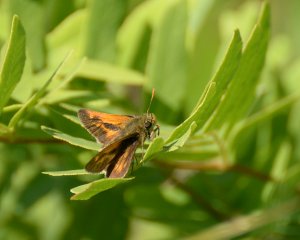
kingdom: Animalia
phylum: Arthropoda
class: Insecta
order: Lepidoptera
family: Hesperiidae
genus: Polites
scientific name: Polites
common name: Long Dash Skipper
